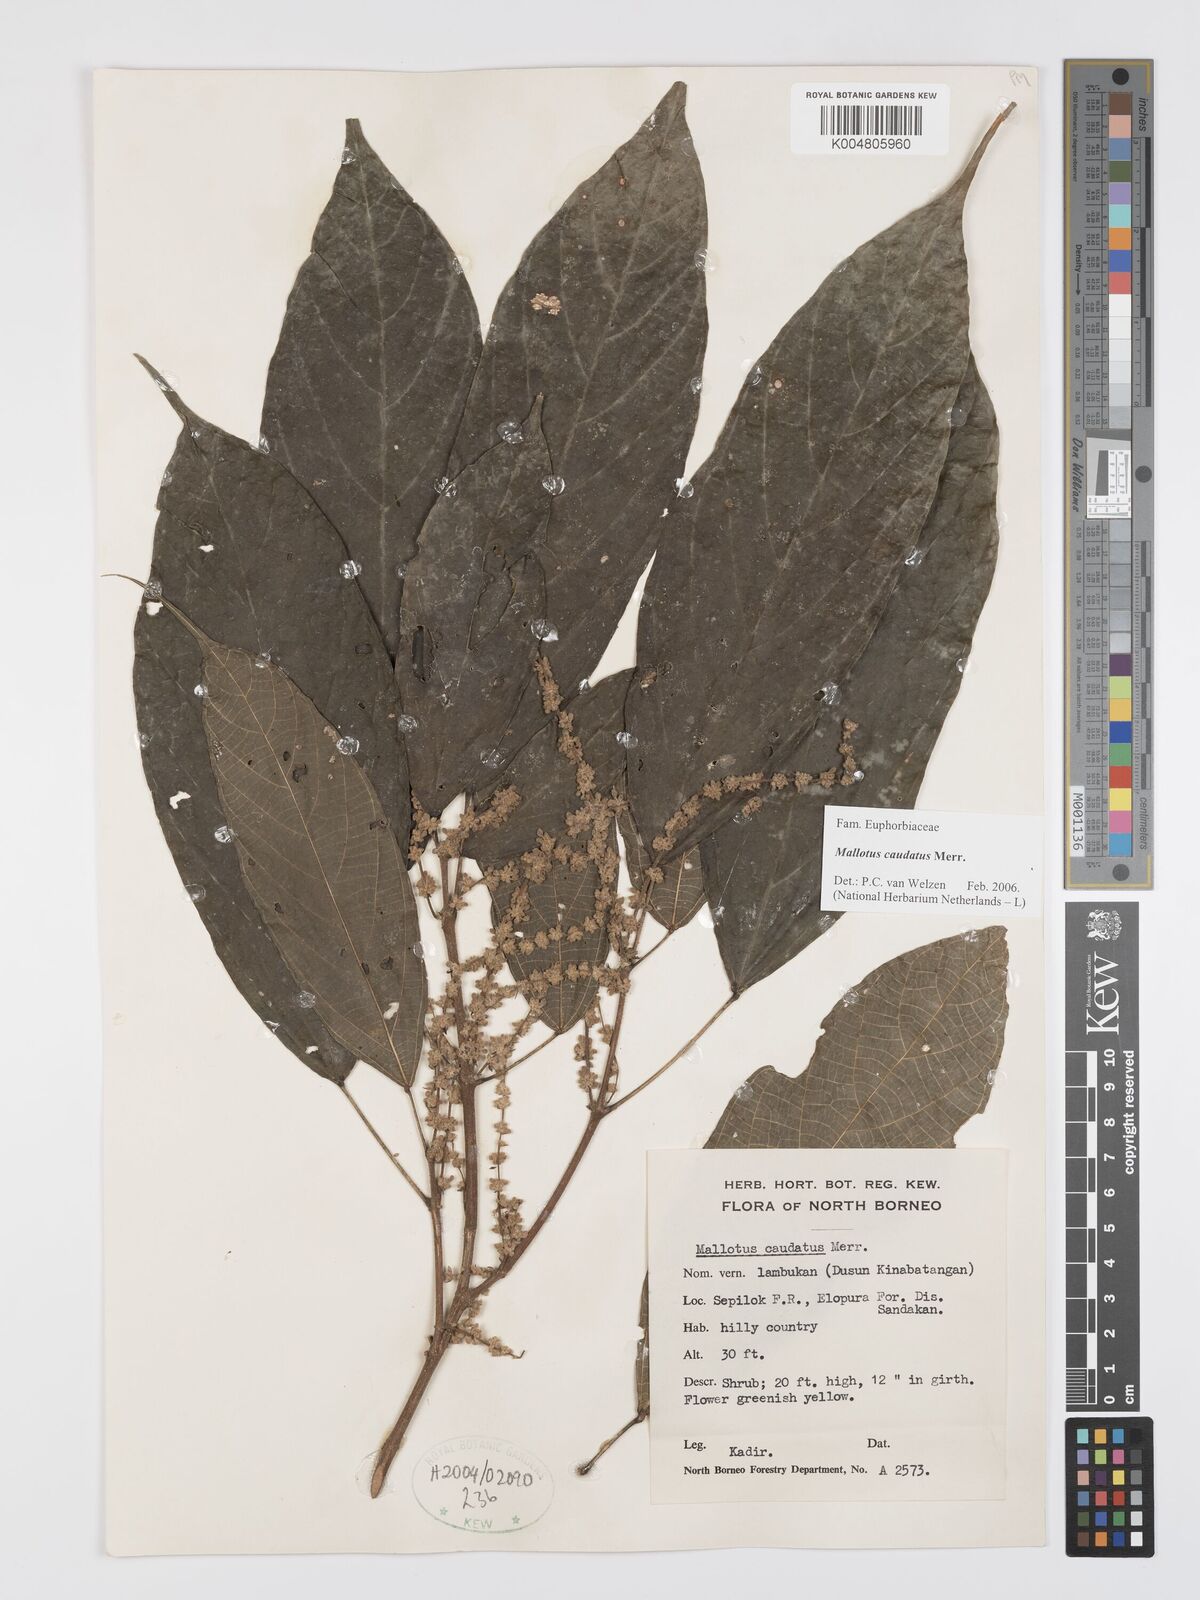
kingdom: Plantae
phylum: Tracheophyta
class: Magnoliopsida
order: Malpighiales
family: Euphorbiaceae
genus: Mallotus
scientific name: Mallotus caudatus
